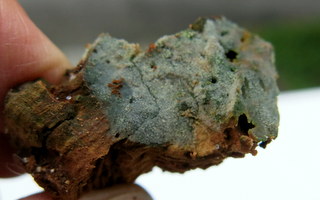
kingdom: Fungi
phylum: Basidiomycota
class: Agaricomycetes
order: Hymenochaetales
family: Rickenellaceae
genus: Resinicium
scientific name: Resinicium bicolor
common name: almindelig vokstand
